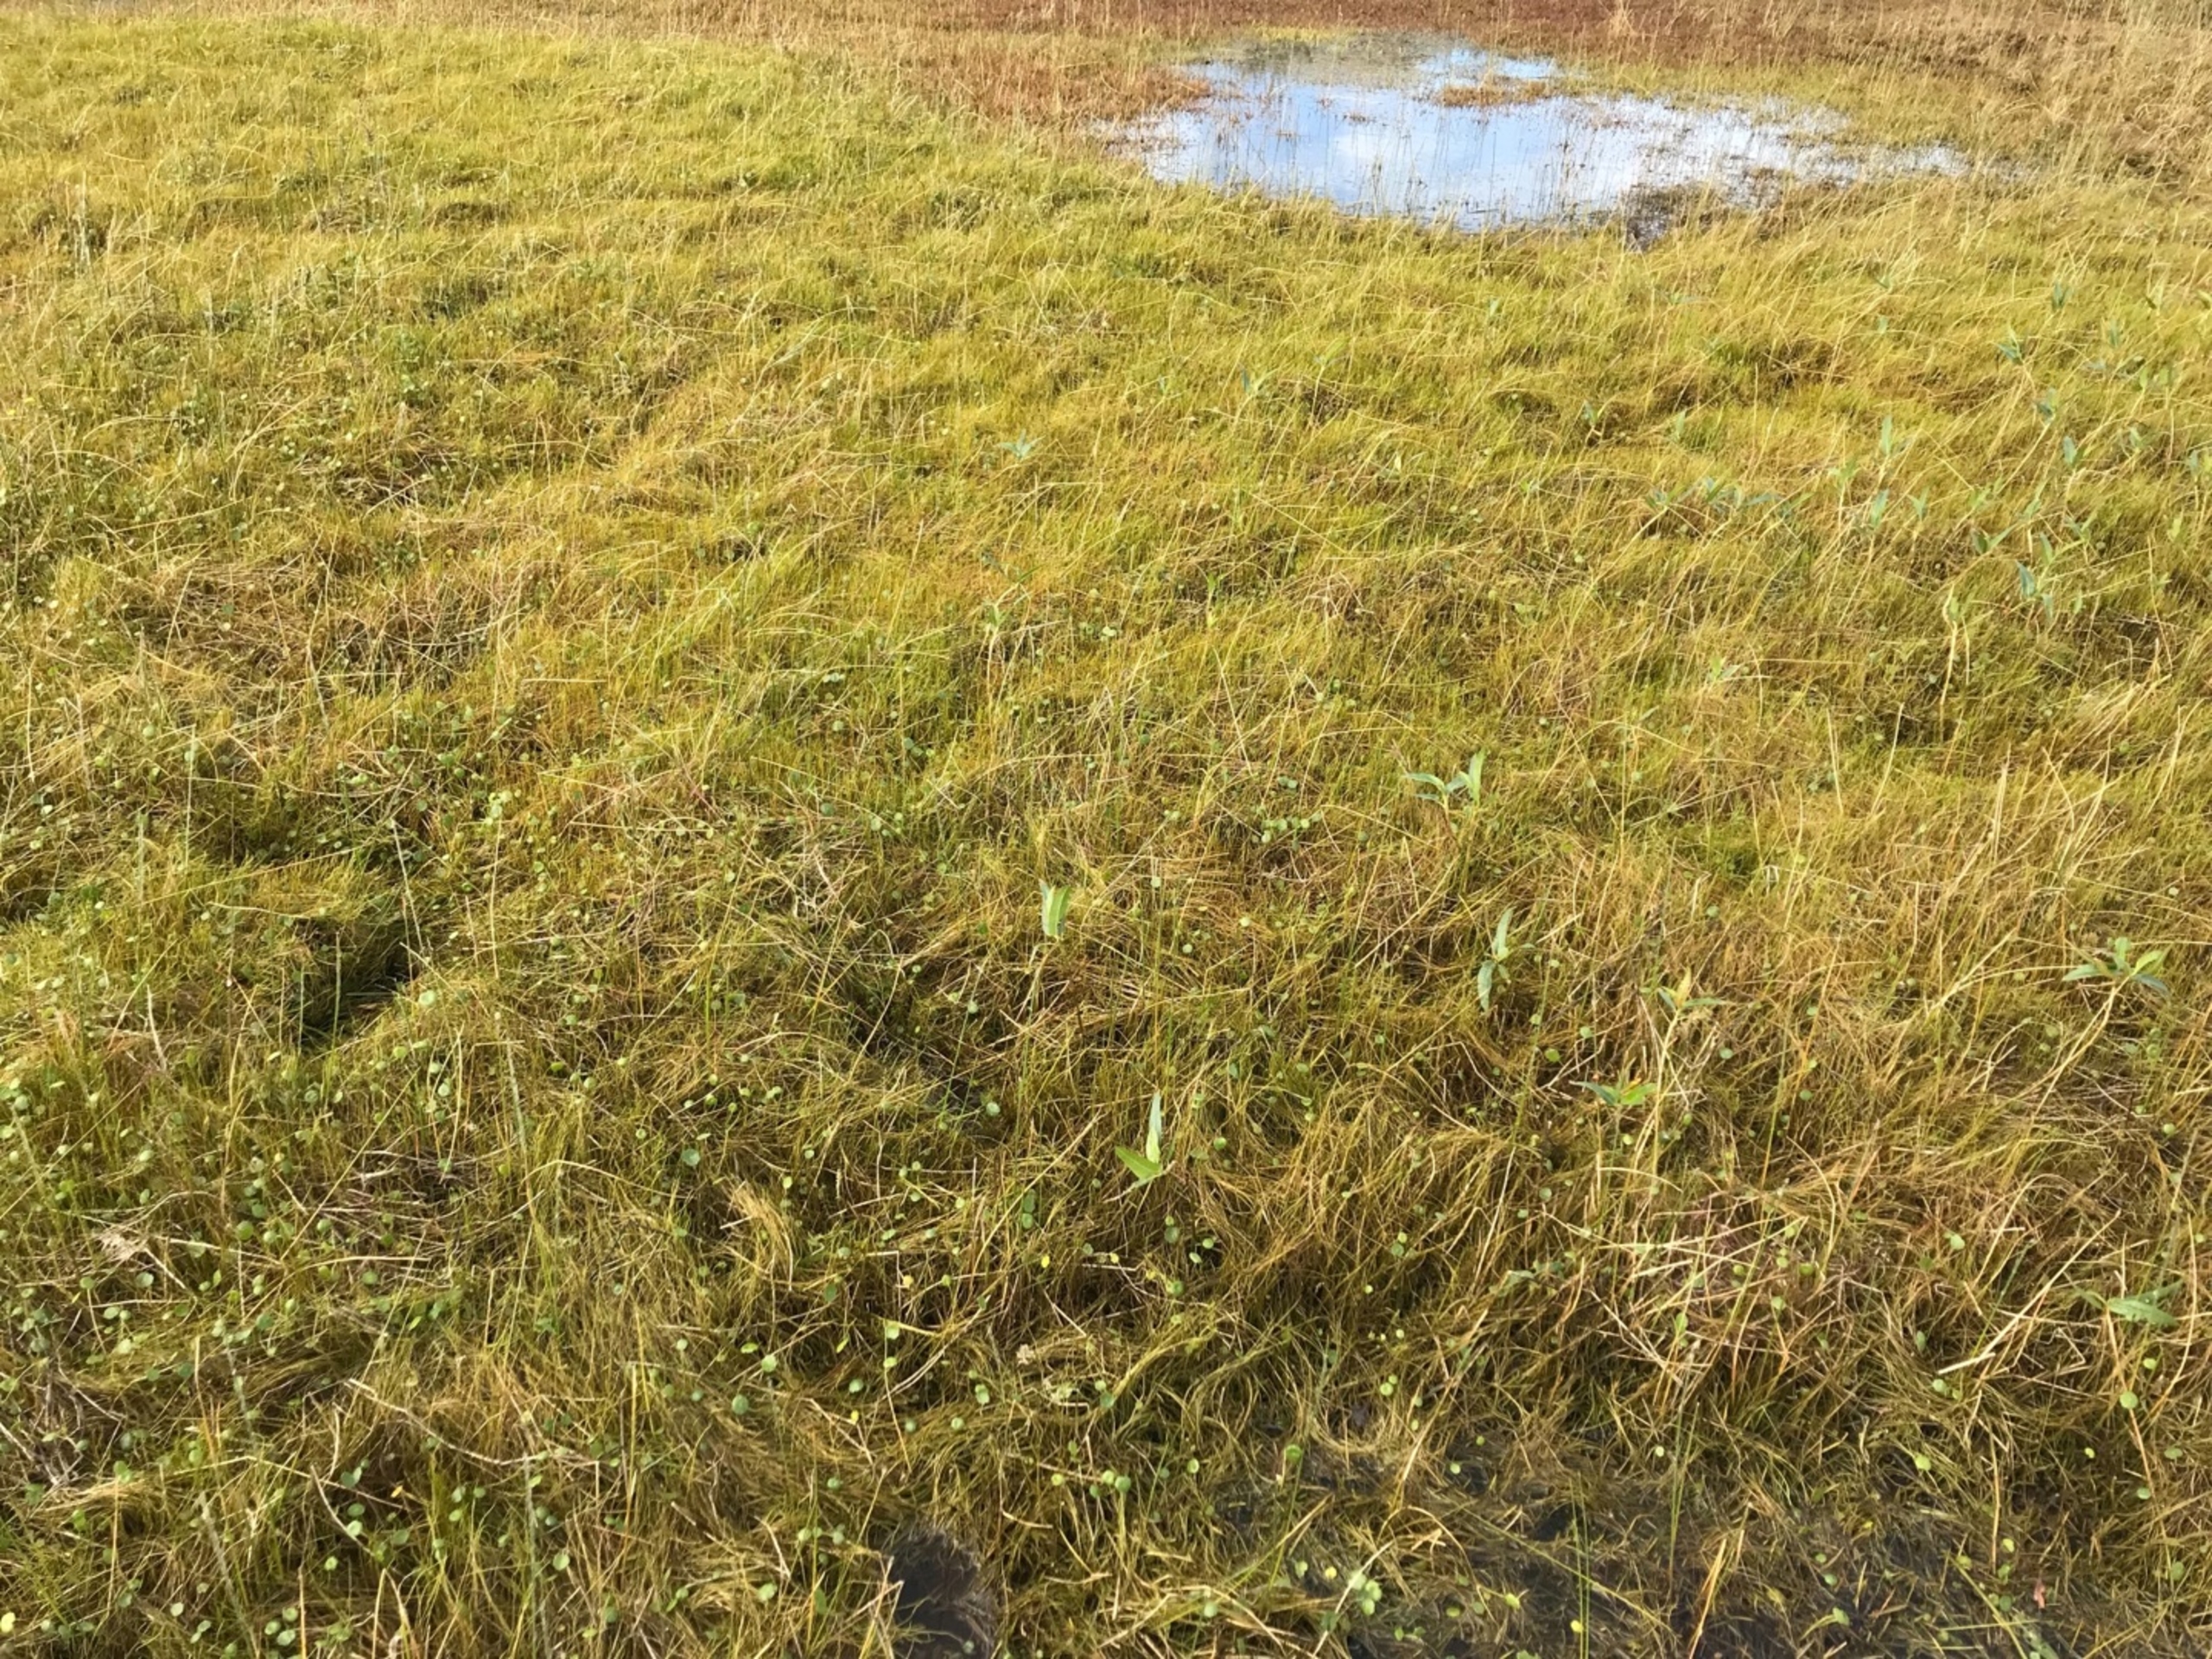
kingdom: Plantae
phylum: Tracheophyta
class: Polypodiopsida
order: Salviniales
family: Marsileaceae
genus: Pilularia
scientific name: Pilularia globulifera
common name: Pilledrager
